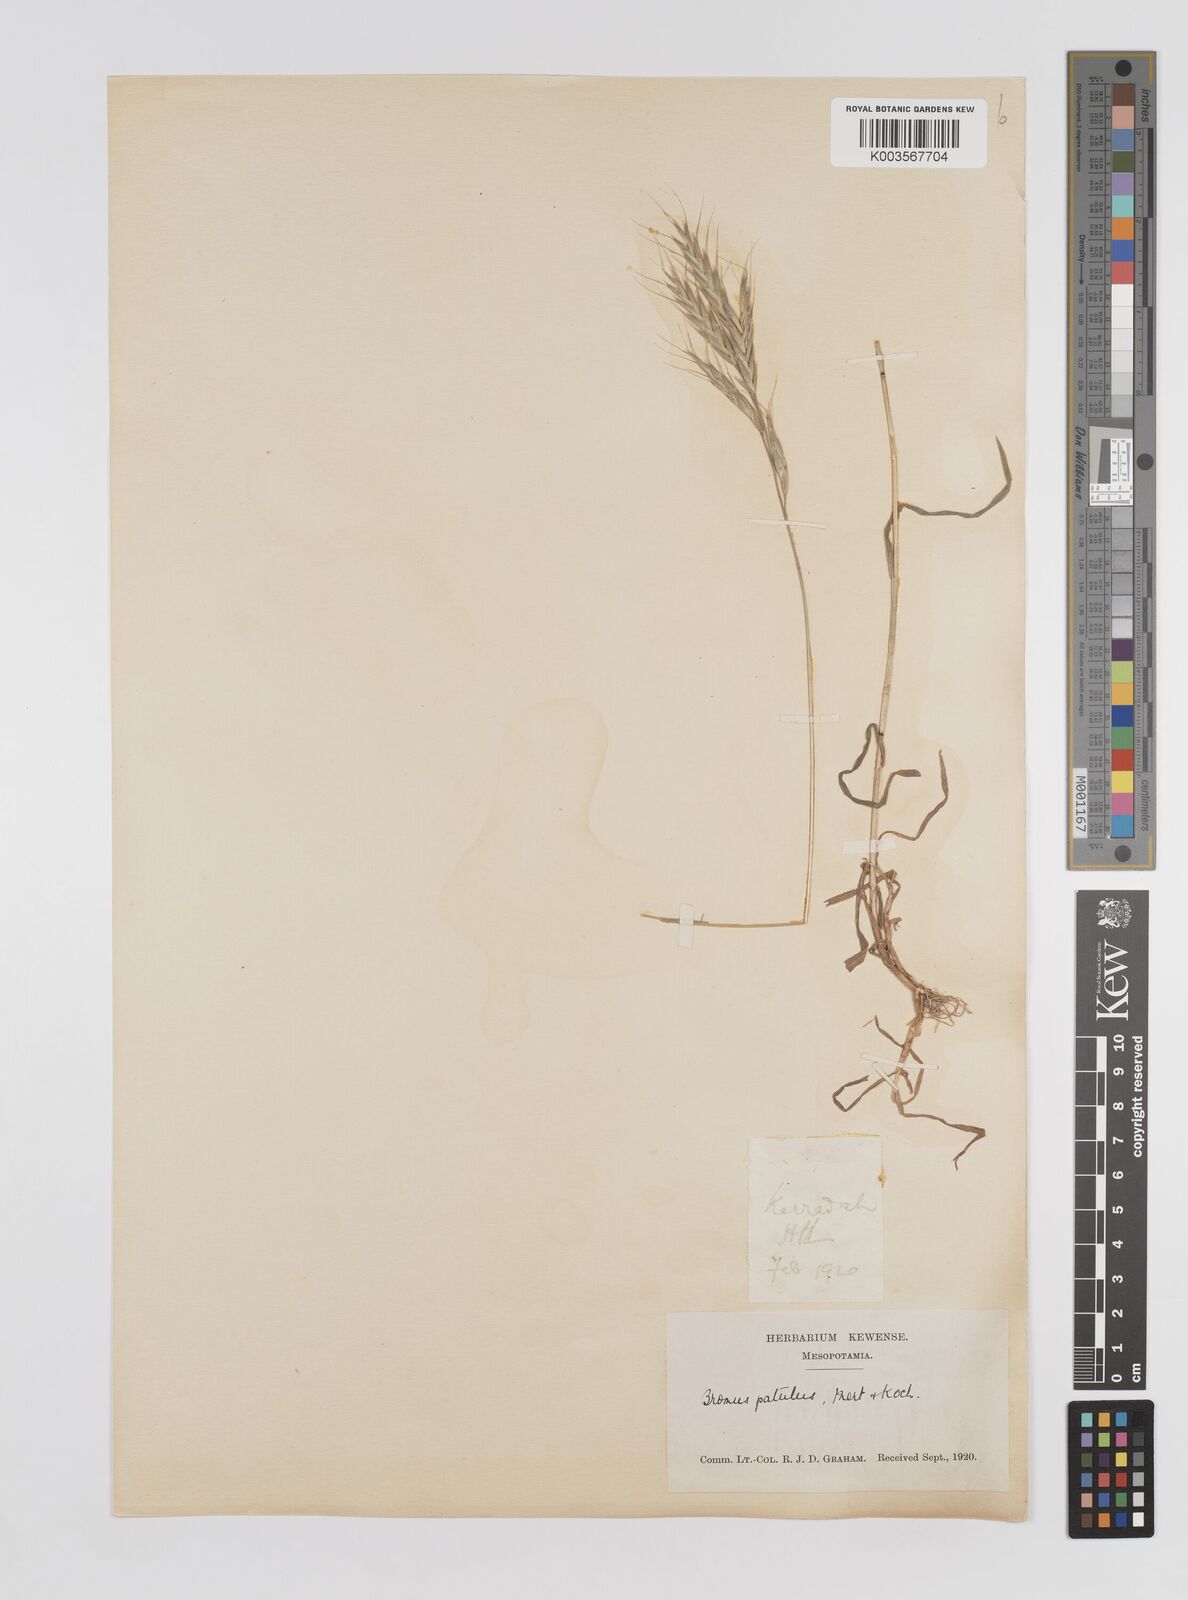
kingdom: Plantae
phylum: Tracheophyta
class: Liliopsida
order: Poales
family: Poaceae
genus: Bromus
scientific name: Bromus
